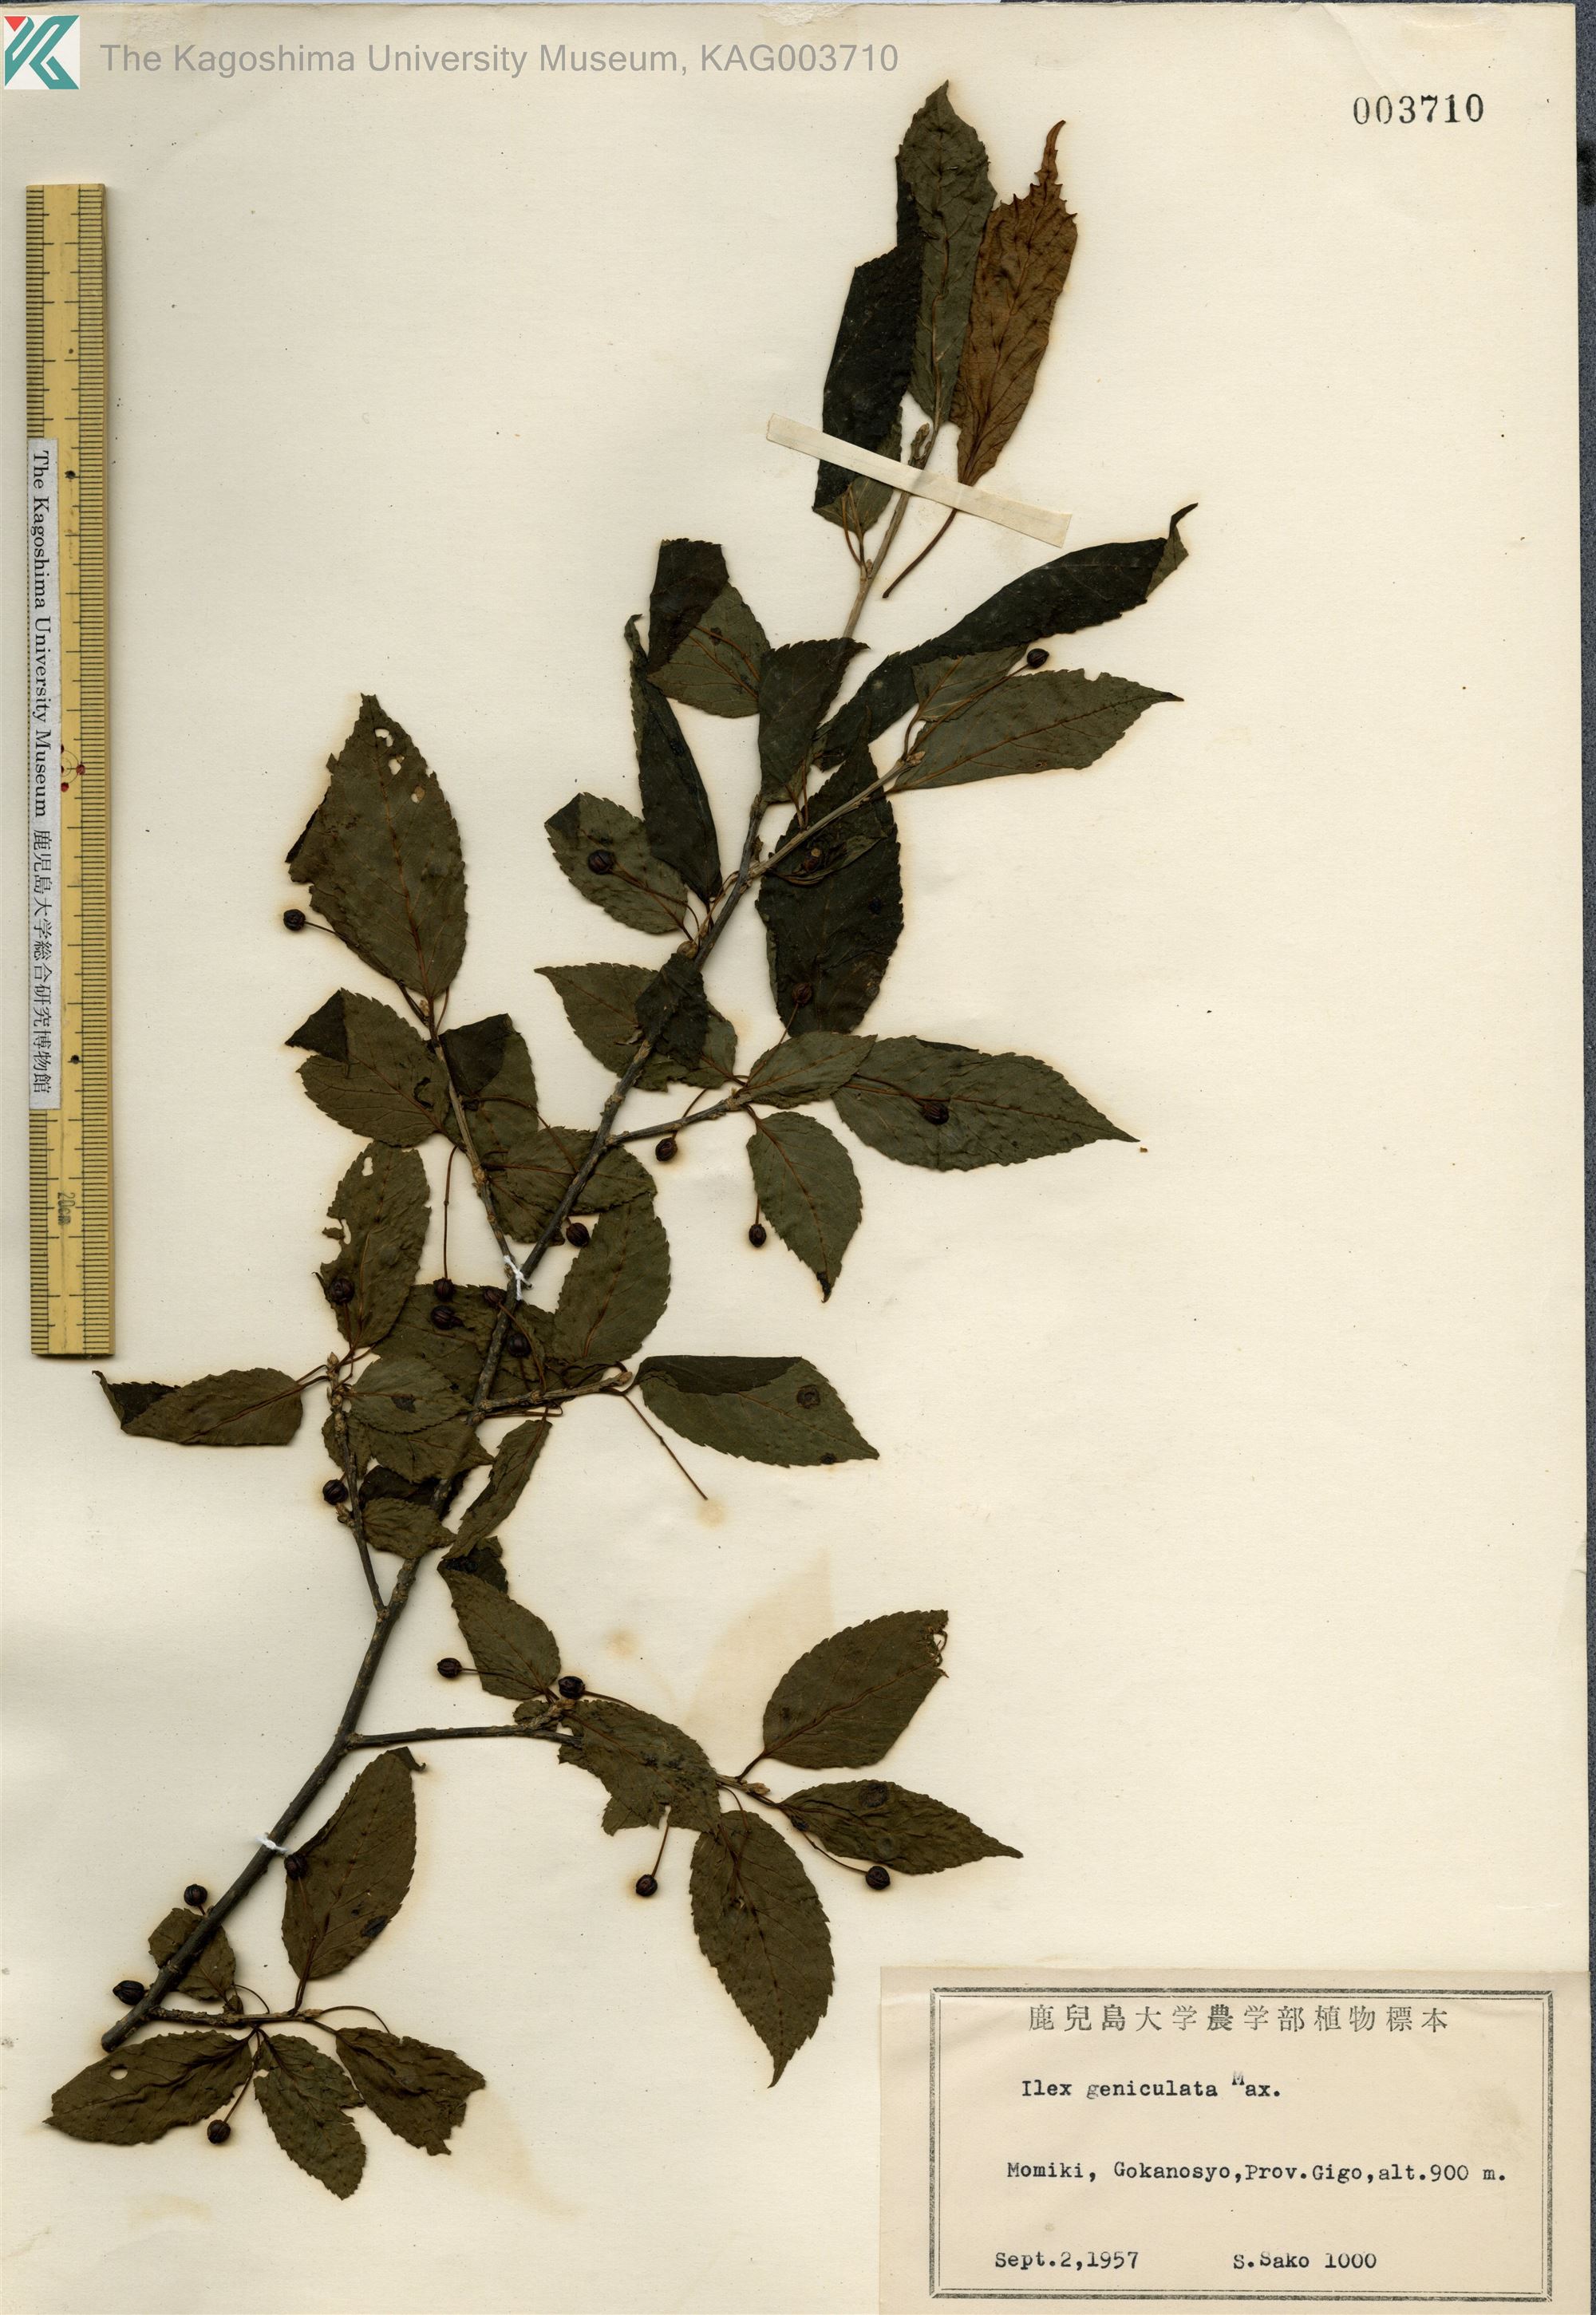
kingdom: Plantae
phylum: Tracheophyta
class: Magnoliopsida
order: Aquifoliales
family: Aquifoliaceae
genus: Ilex
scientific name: Ilex geniculata
